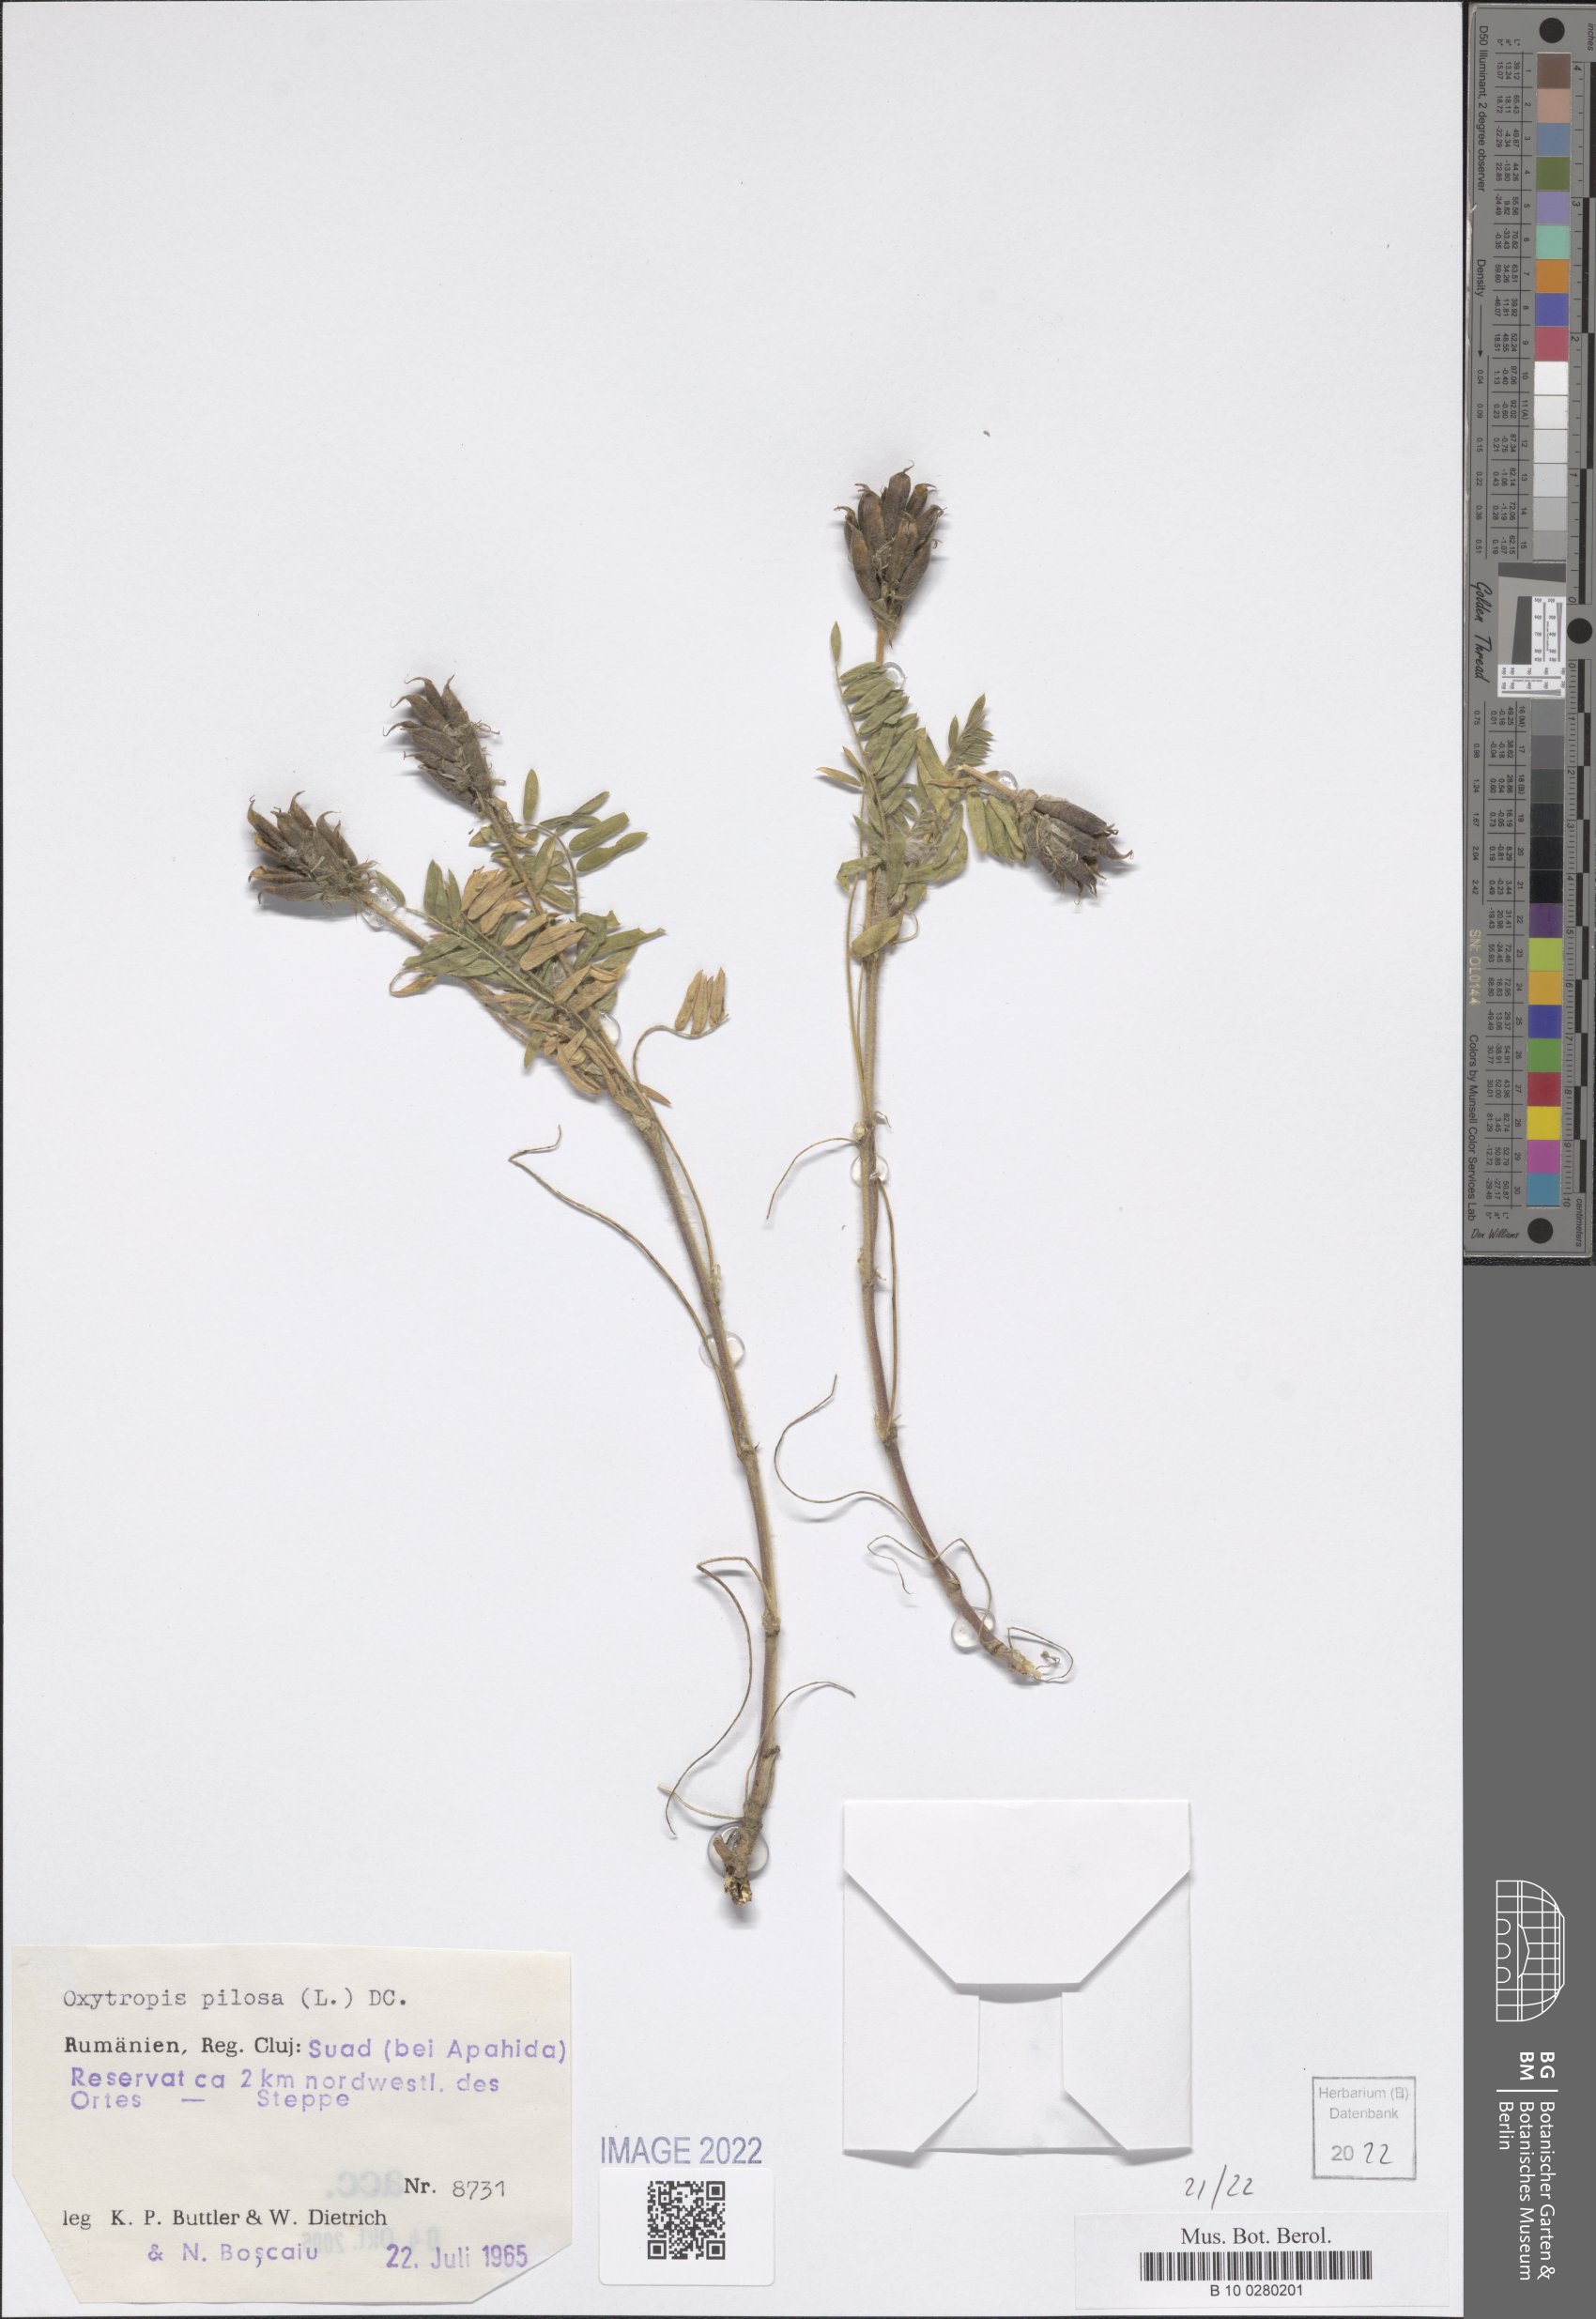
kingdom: Plantae
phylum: Tracheophyta
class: Magnoliopsida
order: Fabales
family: Fabaceae
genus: Oxytropis
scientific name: Oxytropis pilosa
